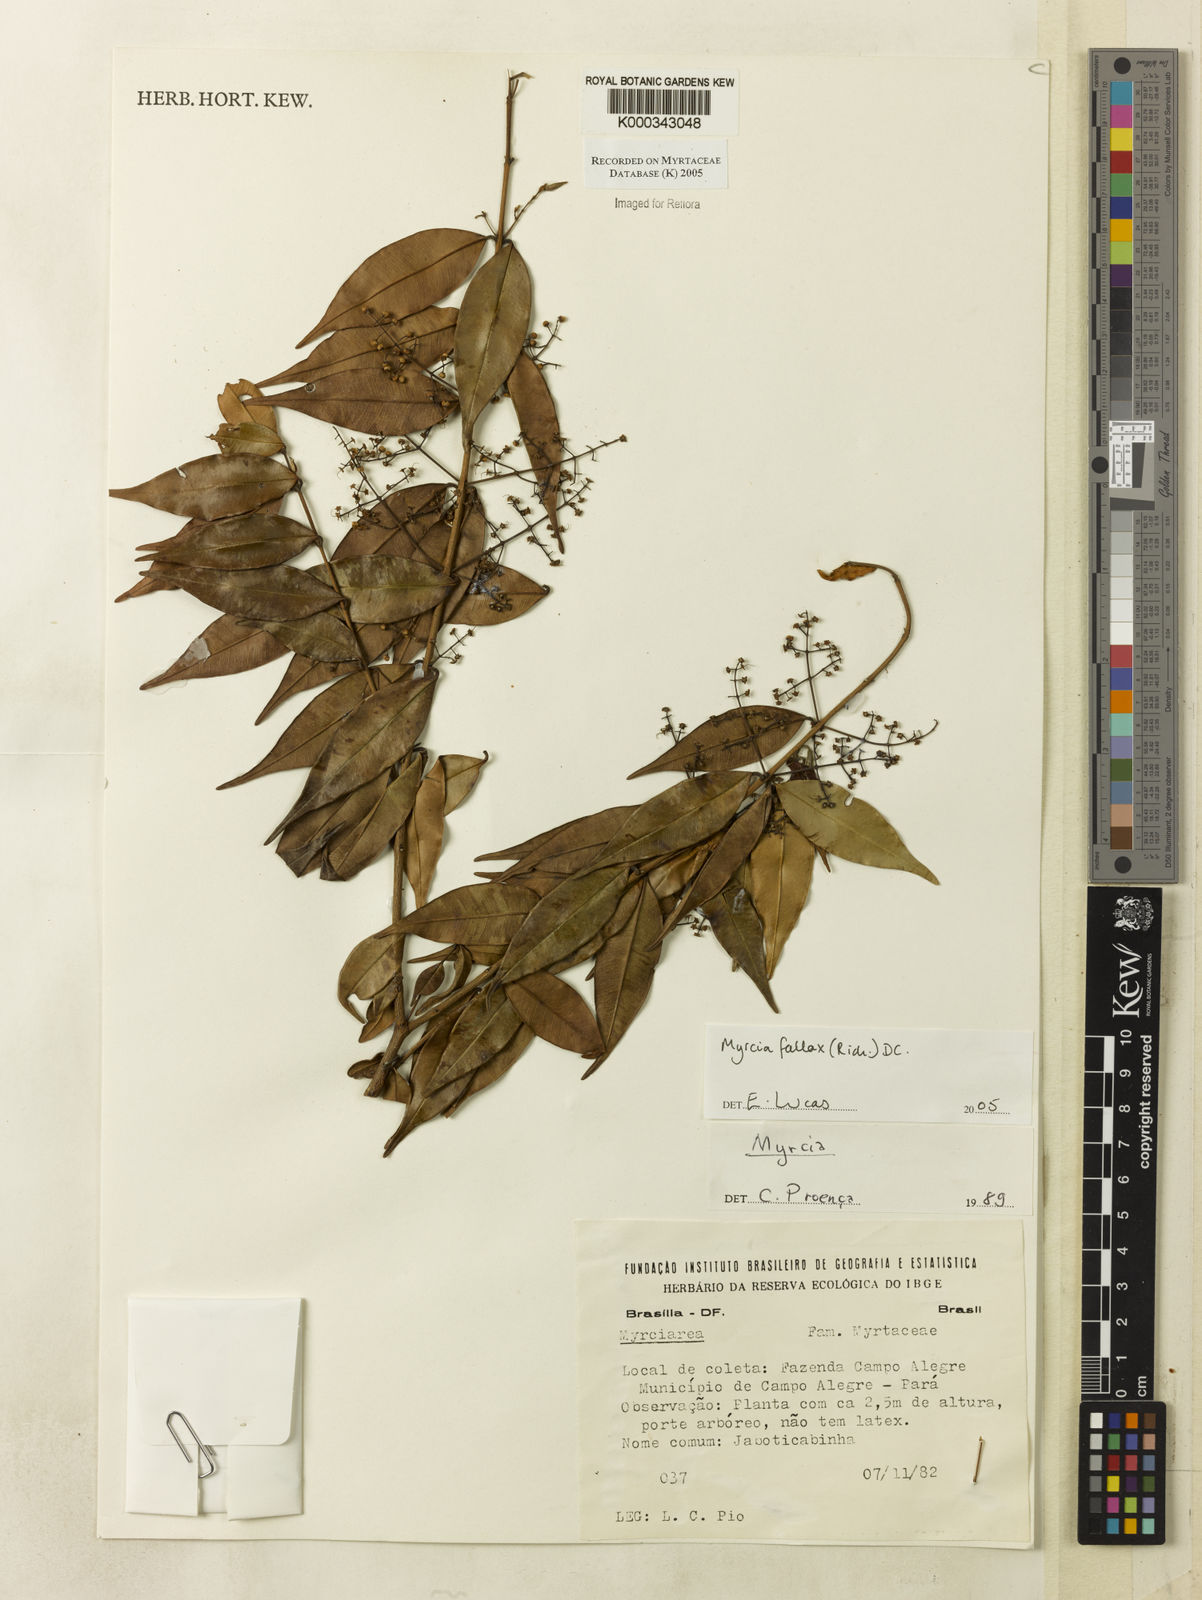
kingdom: Plantae
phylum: Tracheophyta
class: Magnoliopsida
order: Myrtales
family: Myrtaceae
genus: Myrcia
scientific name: Myrcia splendens
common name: Surinam cherry
